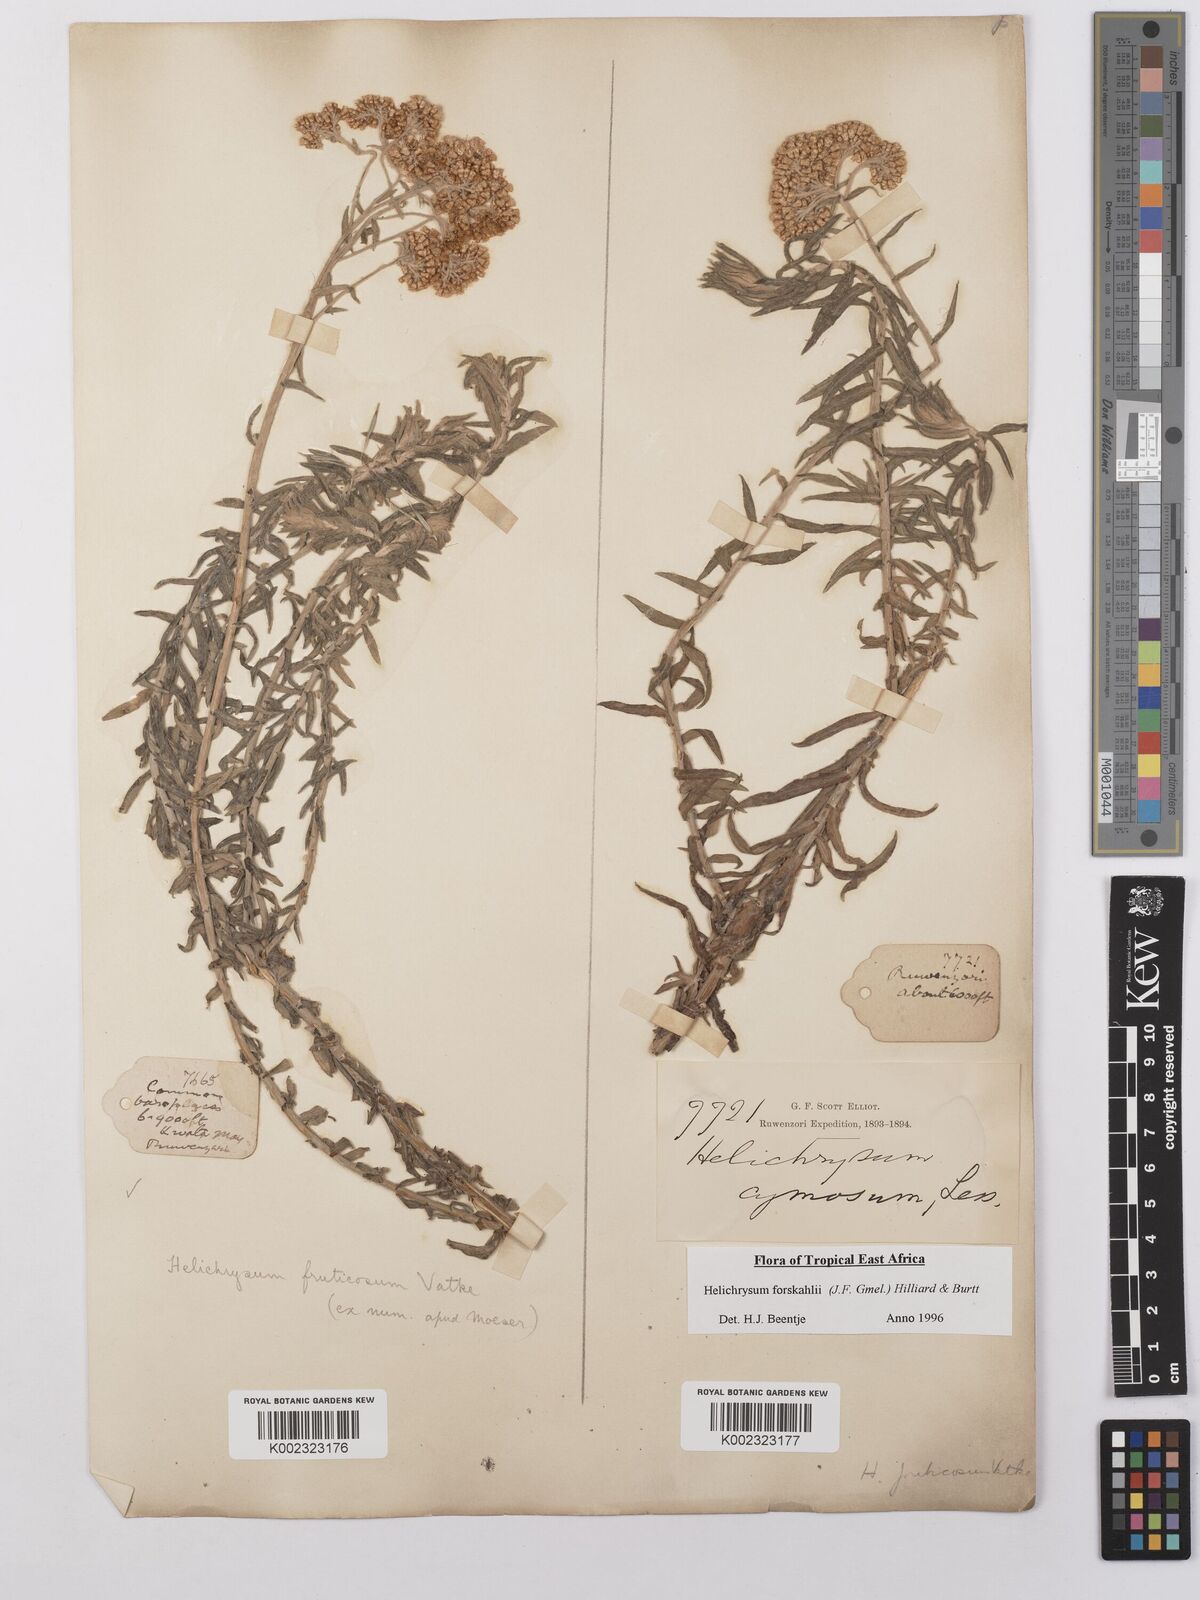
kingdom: Plantae
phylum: Tracheophyta
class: Magnoliopsida
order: Asterales
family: Asteraceae
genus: Helichrysum
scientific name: Helichrysum forskahlii
